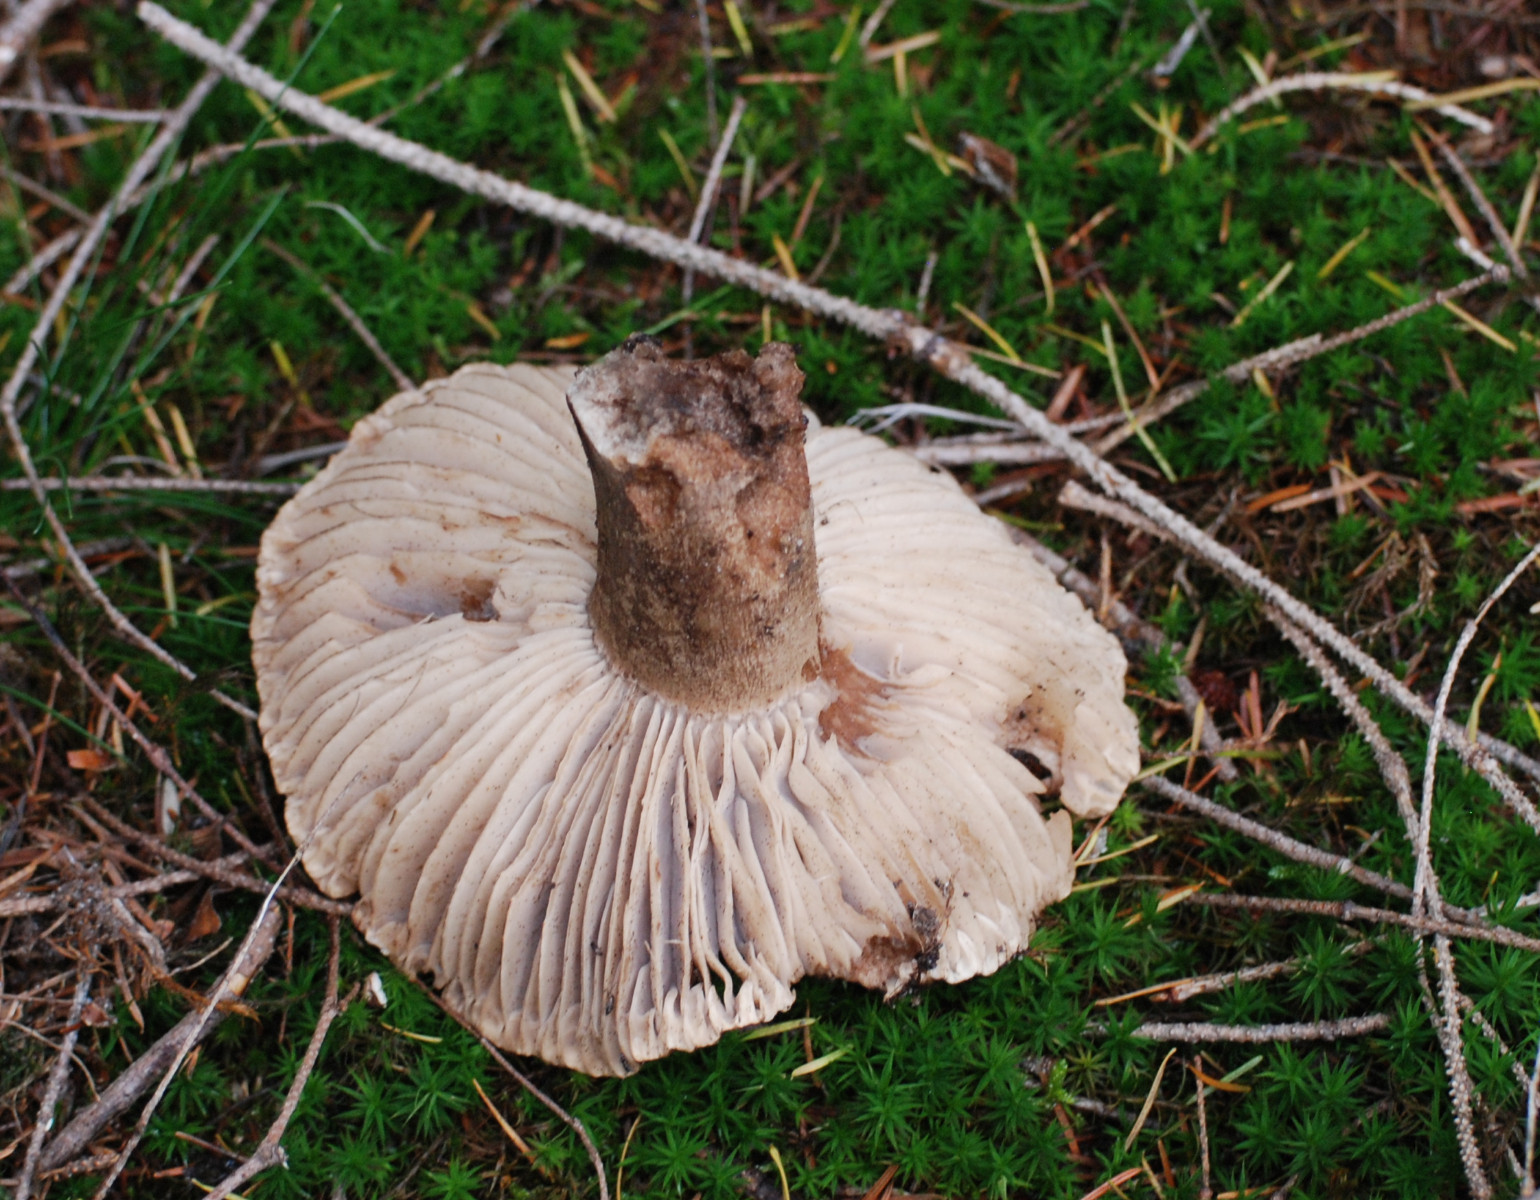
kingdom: Fungi
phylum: Basidiomycota
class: Agaricomycetes
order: Russulales
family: Russulaceae
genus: Russula
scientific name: Russula adusta
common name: sværtende skørhat
